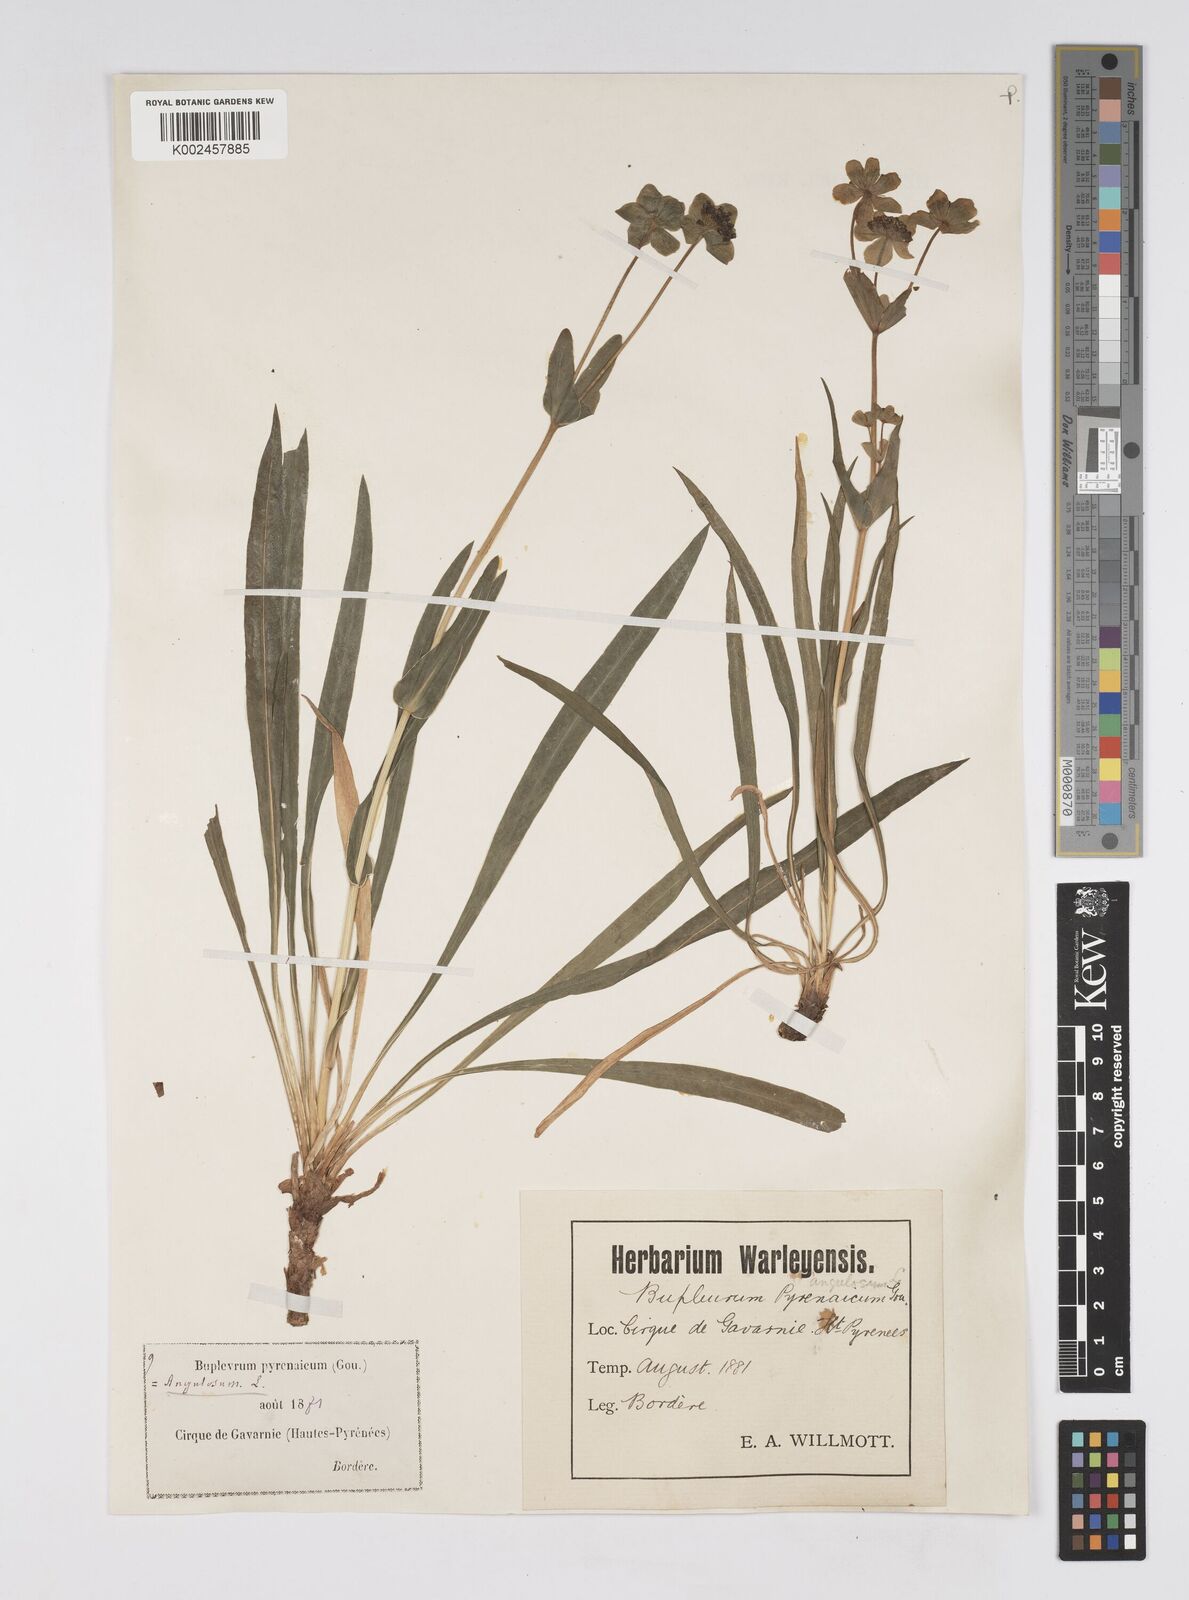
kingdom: Plantae
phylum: Tracheophyta
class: Magnoliopsida
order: Apiales
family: Apiaceae
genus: Bupleurum
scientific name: Bupleurum angulosum
